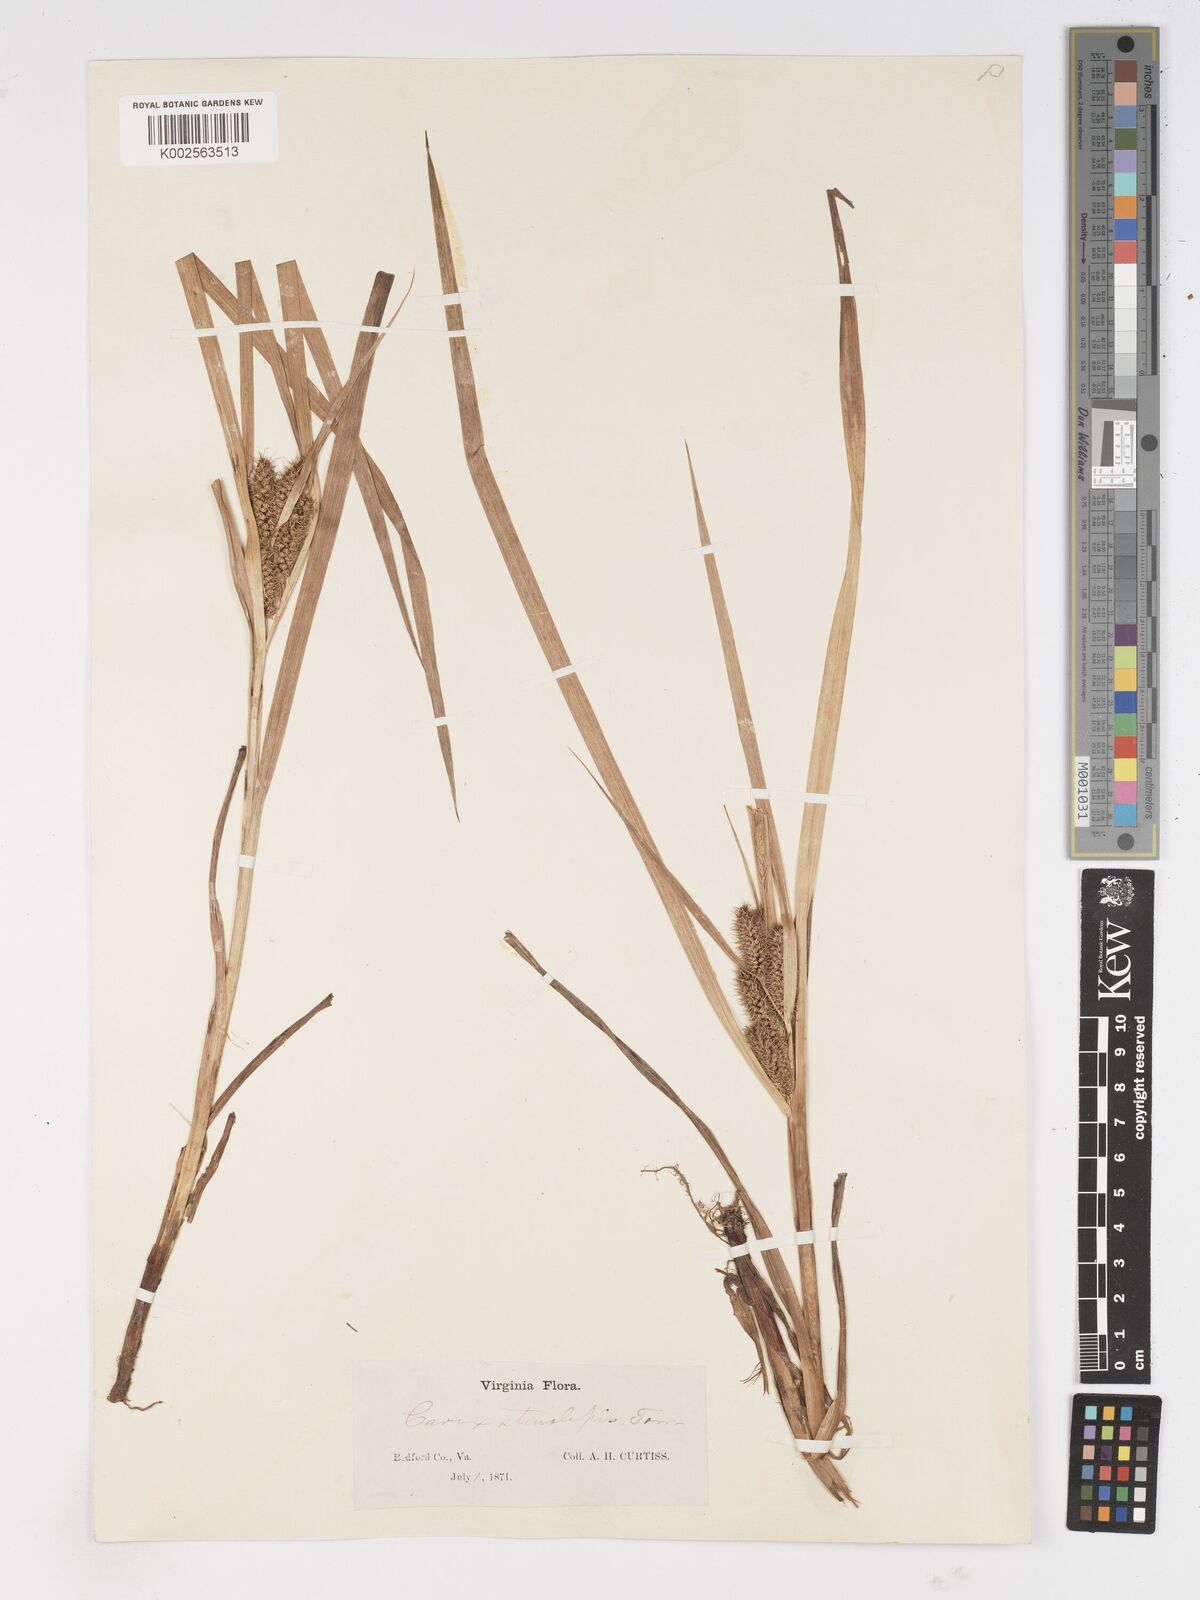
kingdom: Plantae
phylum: Tracheophyta
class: Liliopsida
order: Poales
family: Cyperaceae
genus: Carex
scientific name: Carex frankii
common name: Frank's sedge
